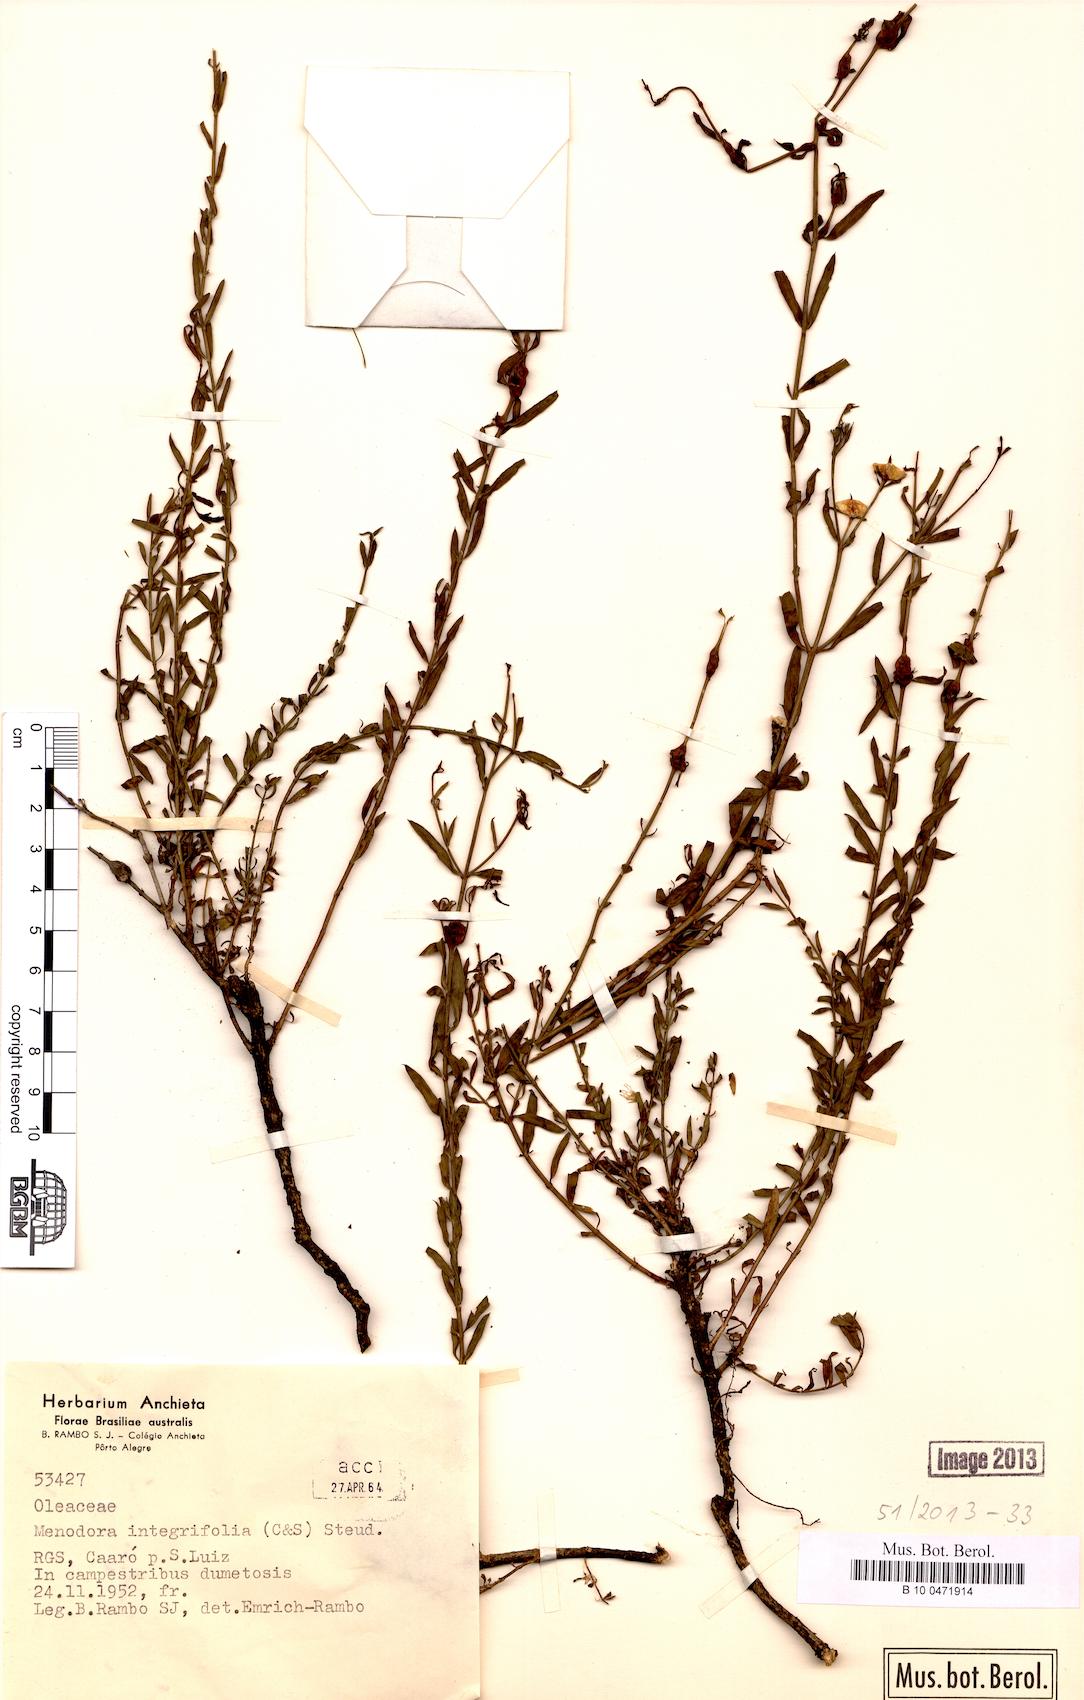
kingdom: Plantae
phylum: Tracheophyta
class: Magnoliopsida
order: Lamiales
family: Oleaceae
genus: Menodora
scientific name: Menodora integrifolia
